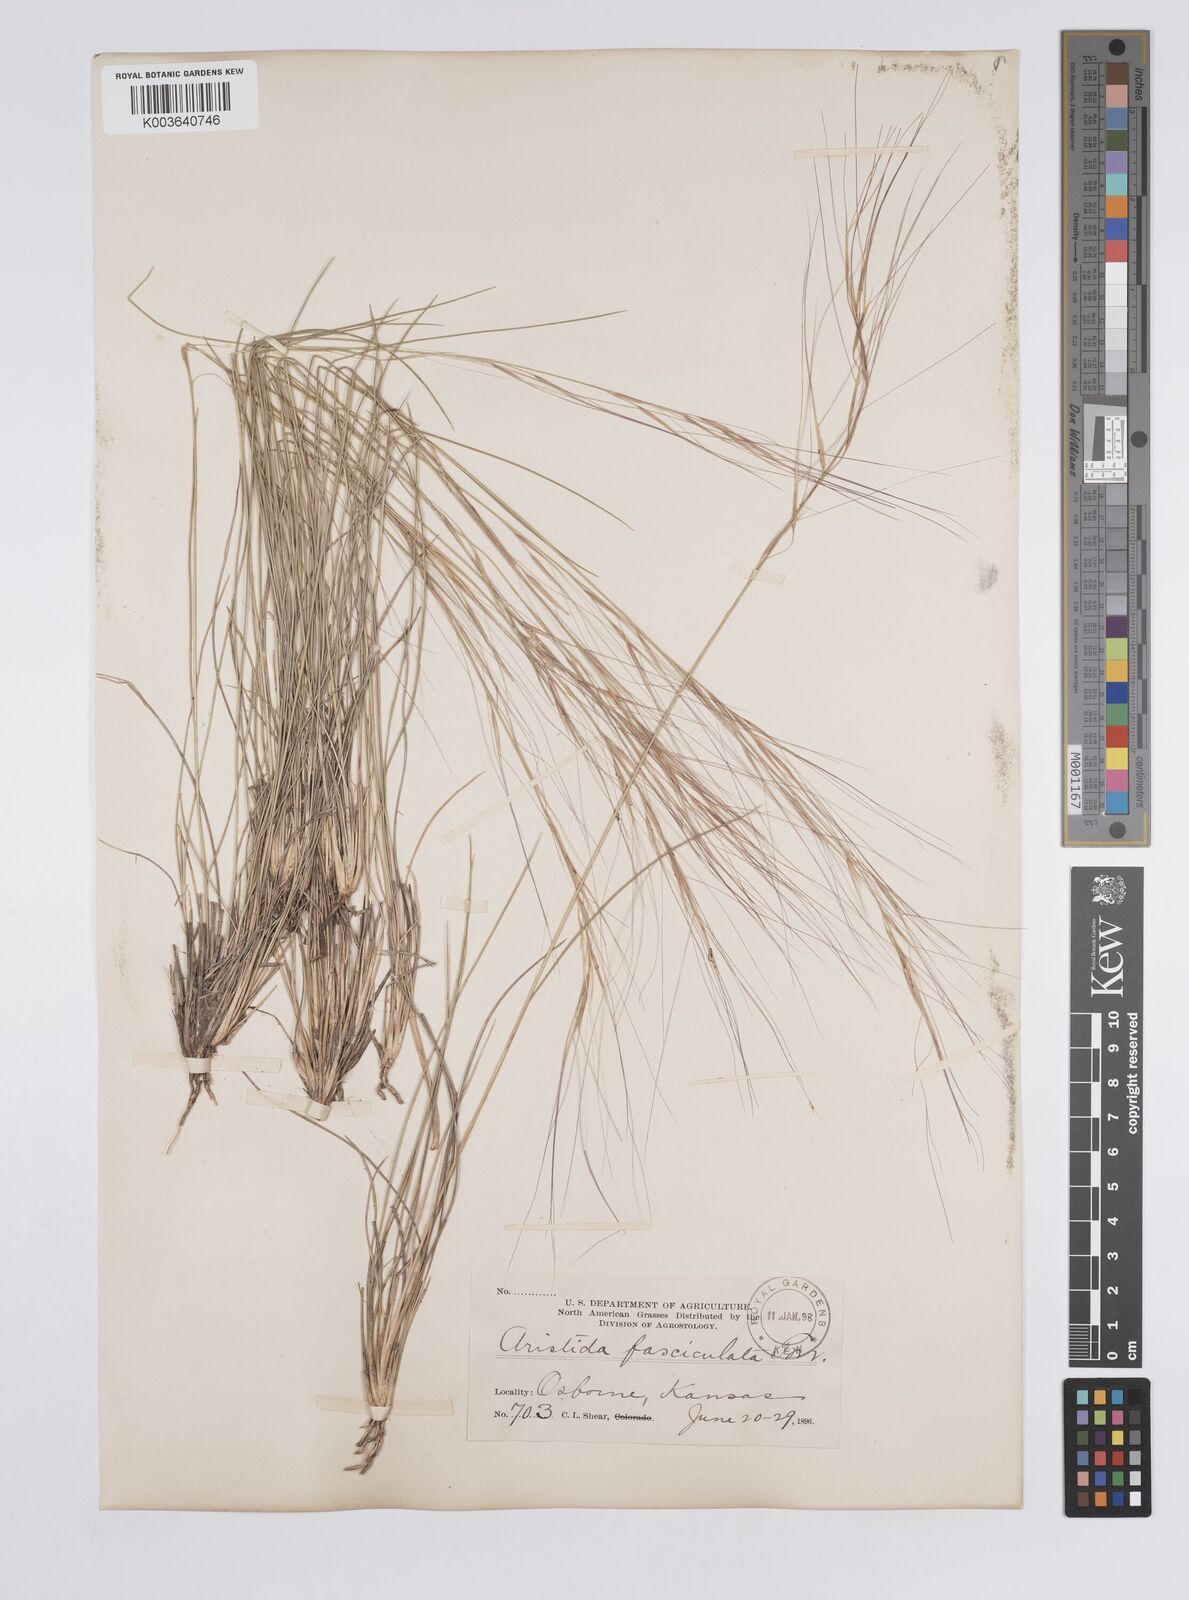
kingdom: Plantae
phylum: Tracheophyta
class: Liliopsida
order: Poales
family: Poaceae
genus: Aristida
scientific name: Aristida adscensionis
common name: Sixweeks threeawn
